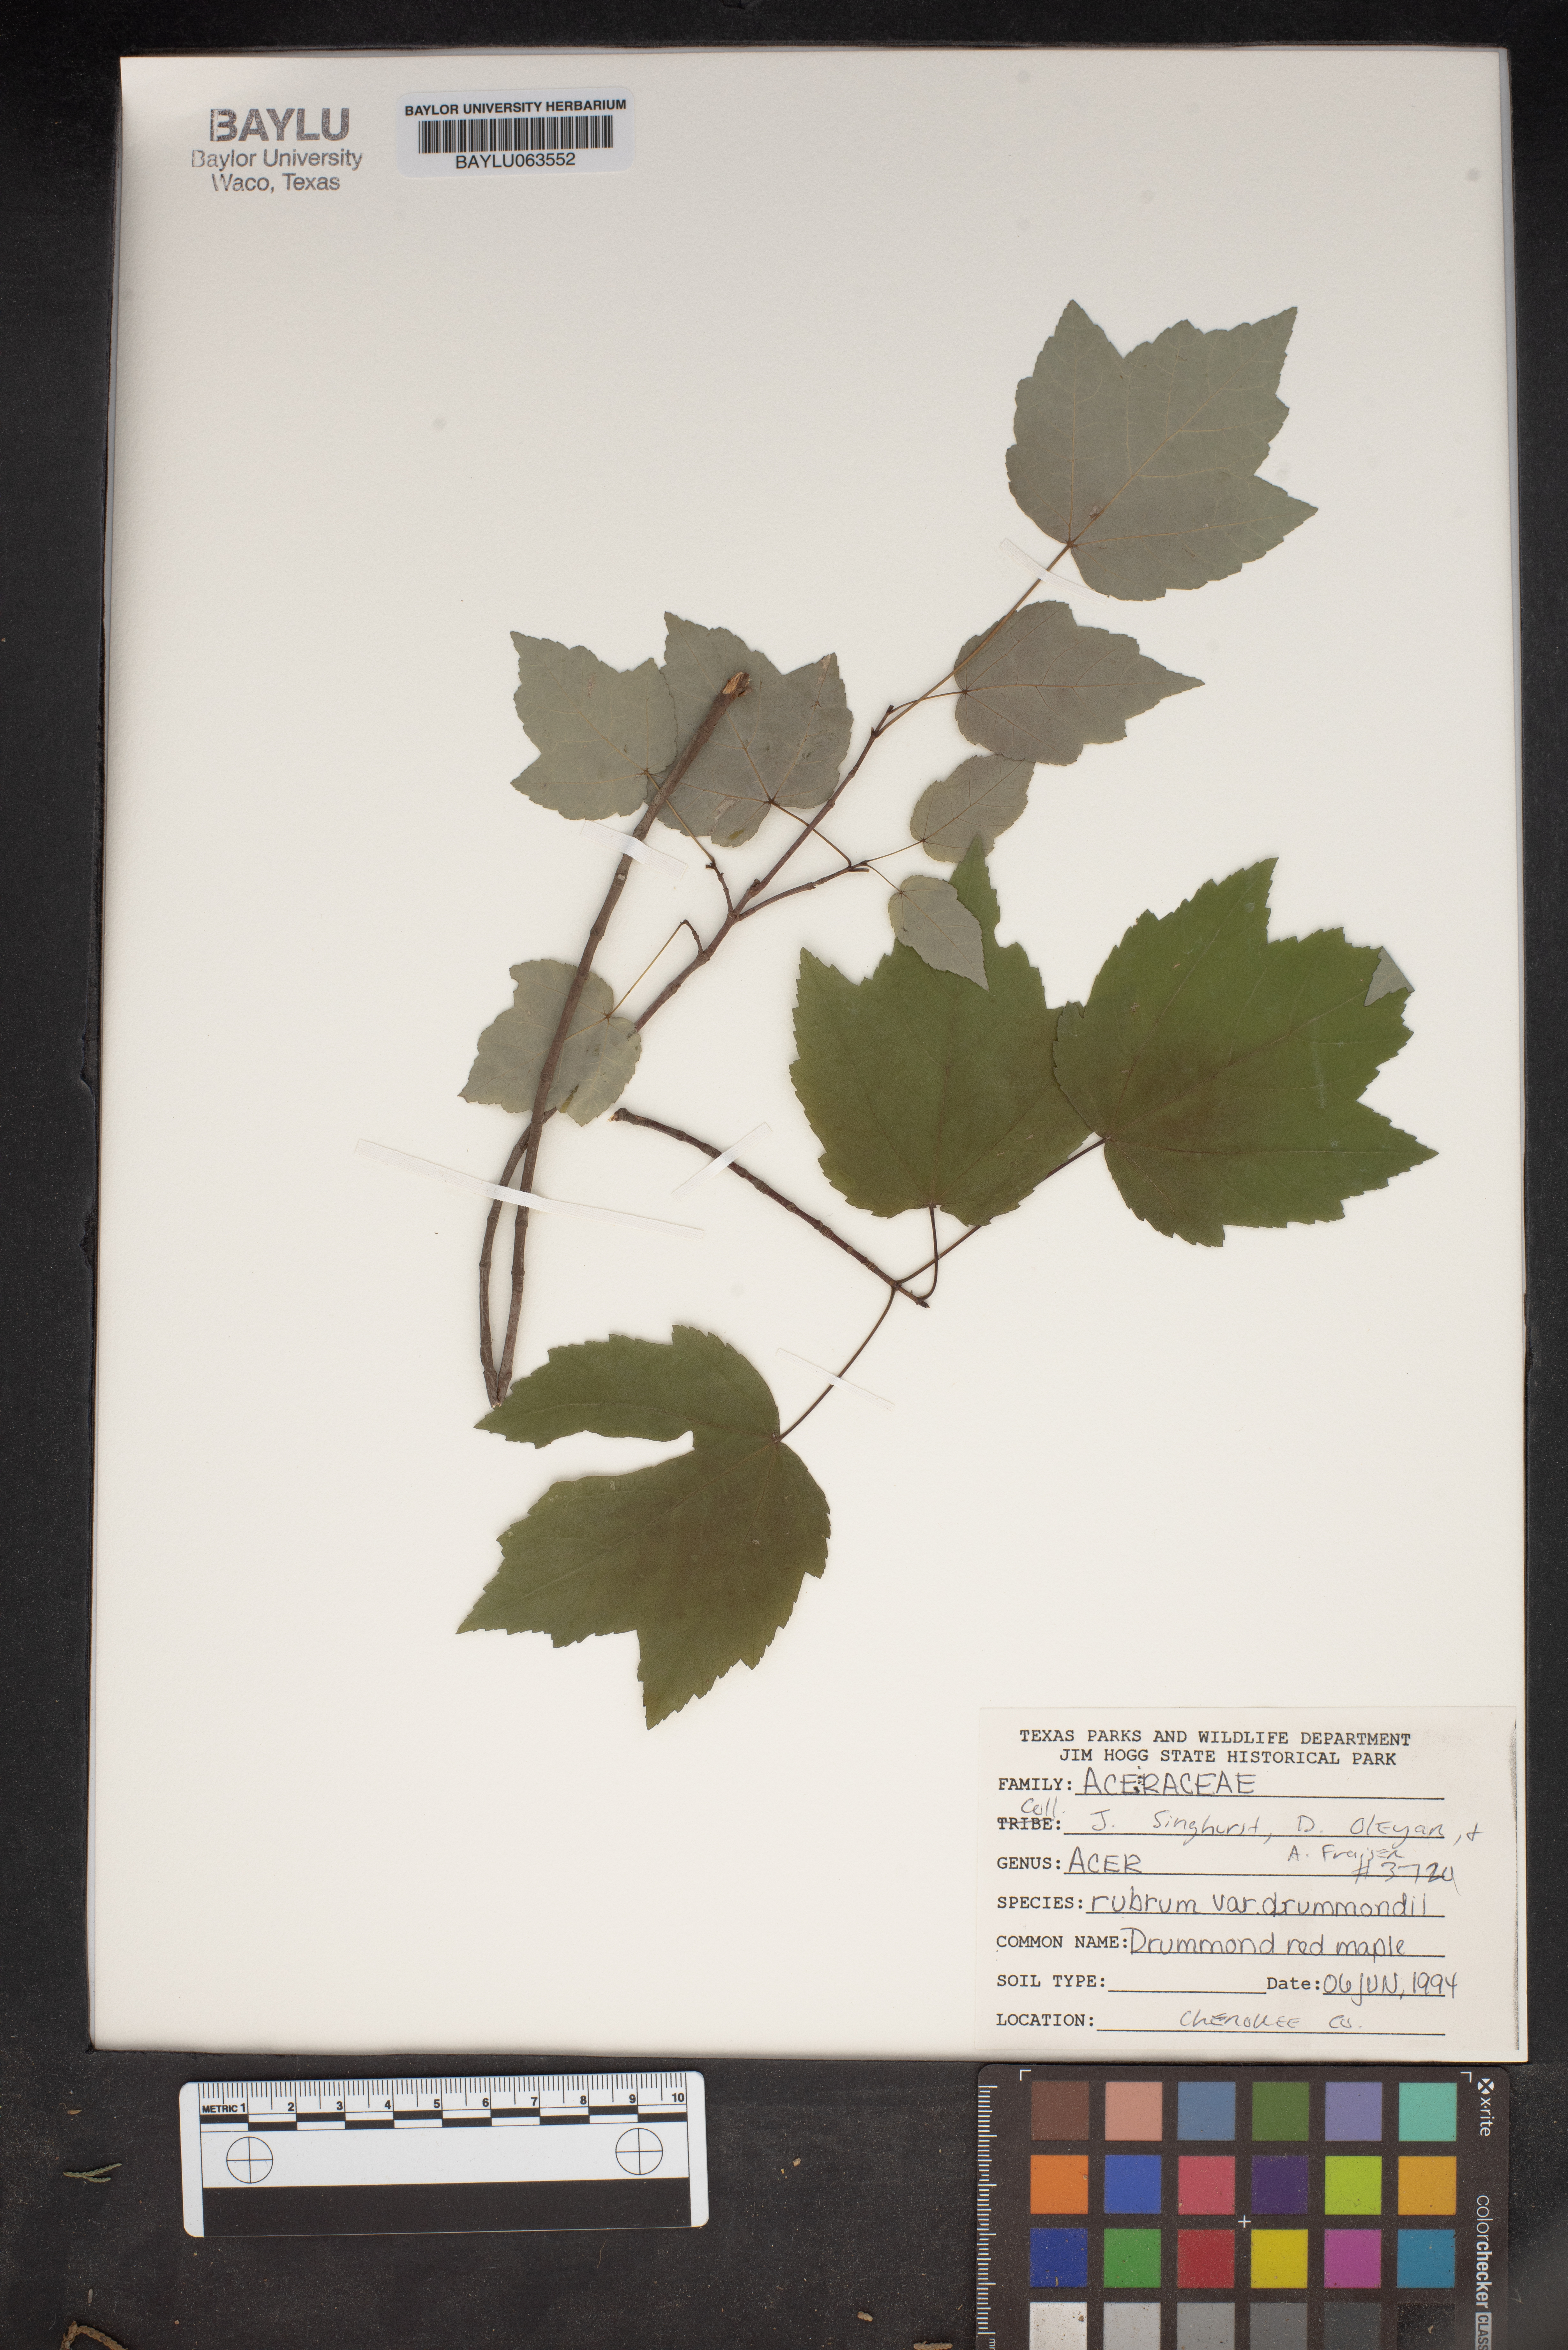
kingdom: Plantae
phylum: Tracheophyta
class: Magnoliopsida
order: Sapindales
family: Sapindaceae
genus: Acer
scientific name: Acer rubrum
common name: Red maple
